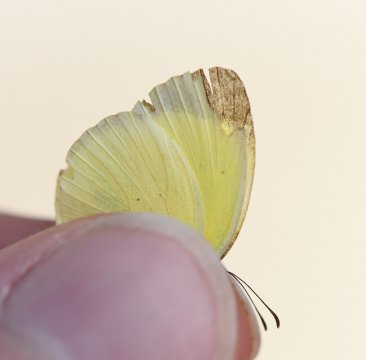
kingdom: Animalia
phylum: Arthropoda
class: Insecta
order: Lepidoptera
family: Pieridae
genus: Pyrisitia
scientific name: Pyrisitia venusta
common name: Pale Yellow
